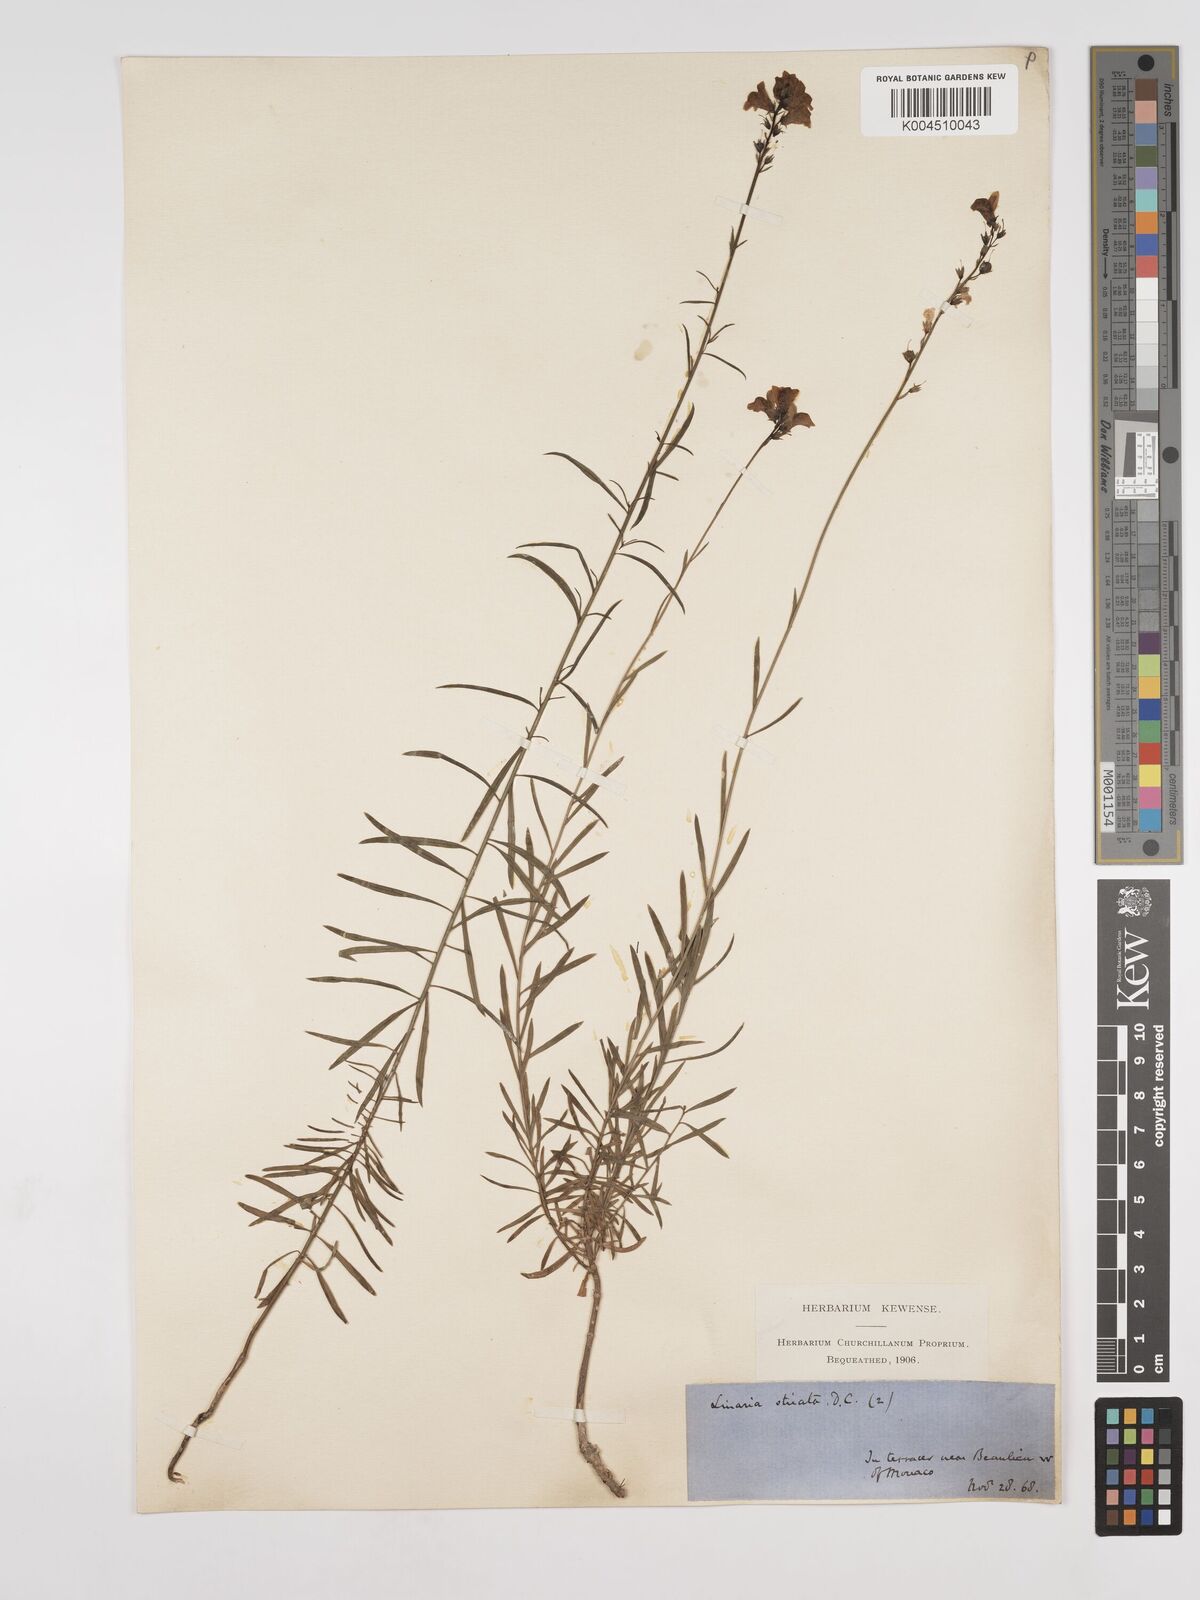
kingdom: Plantae
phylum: Tracheophyta
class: Magnoliopsida
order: Lamiales
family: Plantaginaceae
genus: Linaria
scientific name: Linaria repens
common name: Pale toadflax
